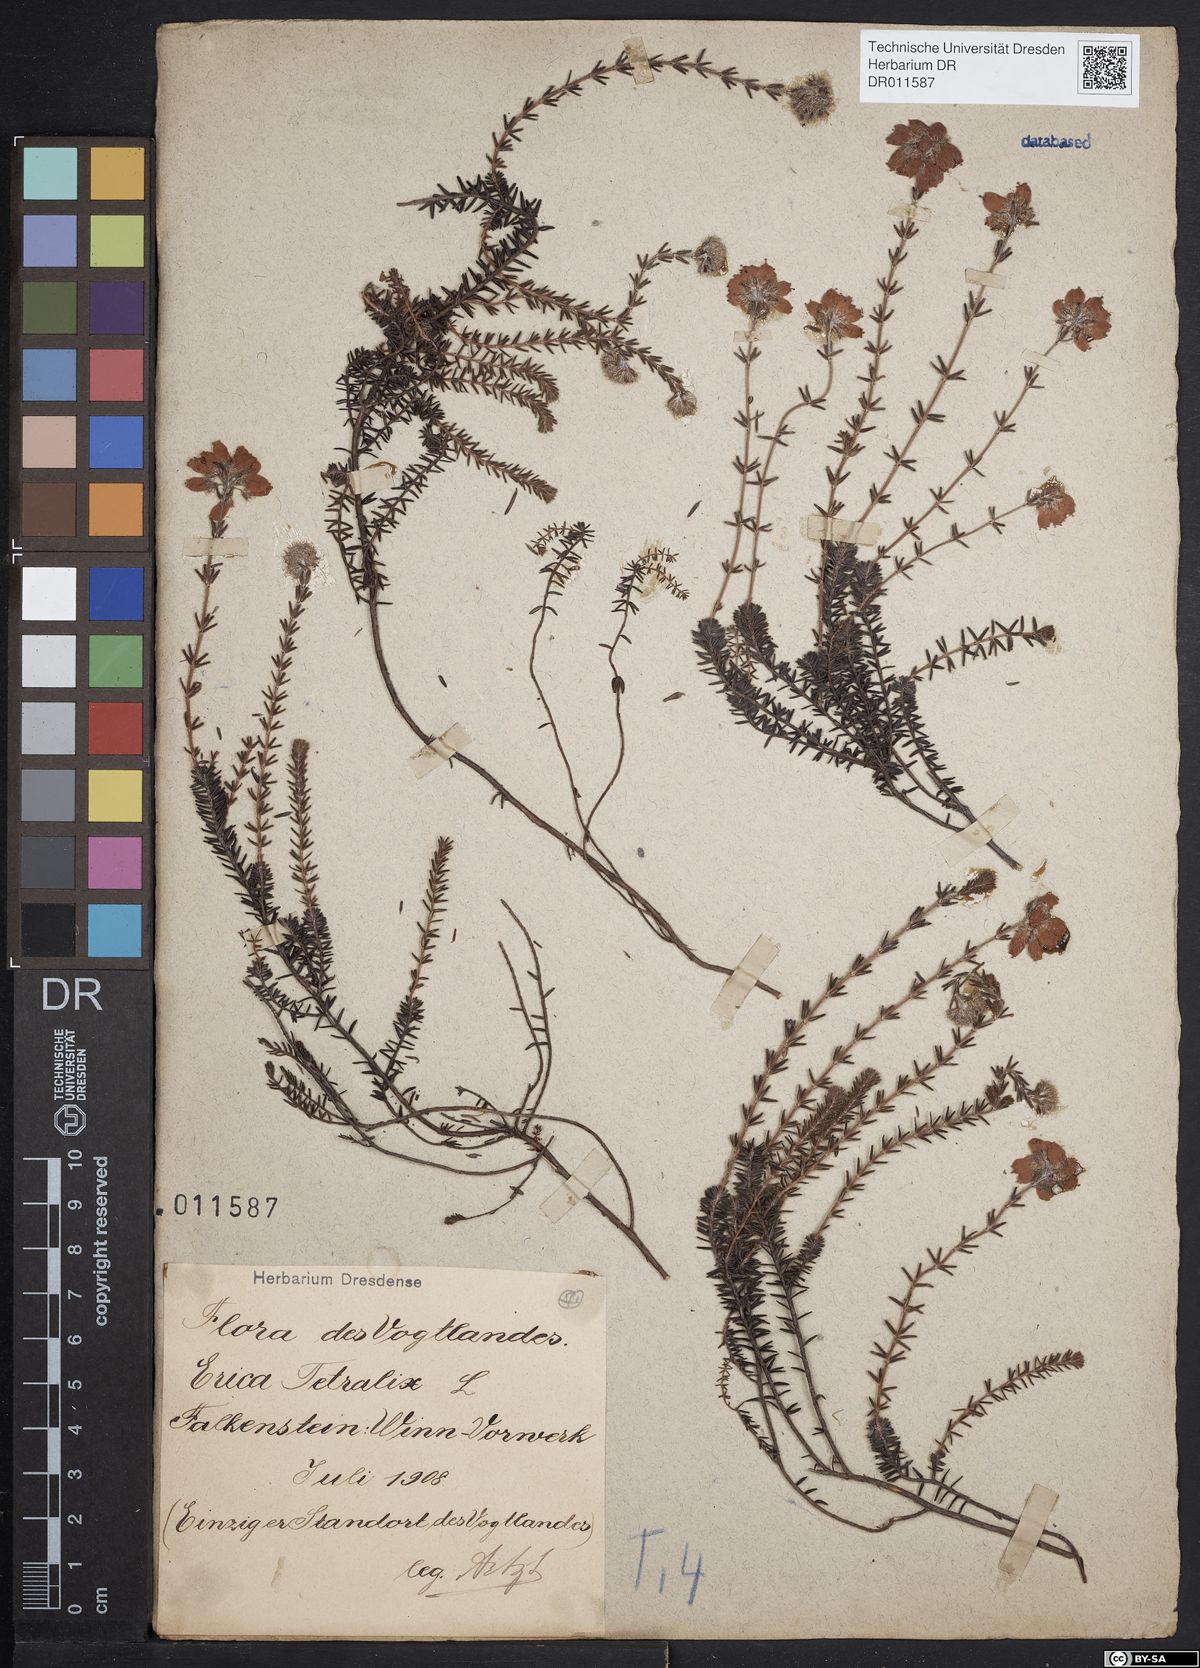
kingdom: Plantae
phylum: Tracheophyta
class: Magnoliopsida
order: Ericales
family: Ericaceae
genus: Erica
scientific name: Erica tetralix
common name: Cross-leaved heath
